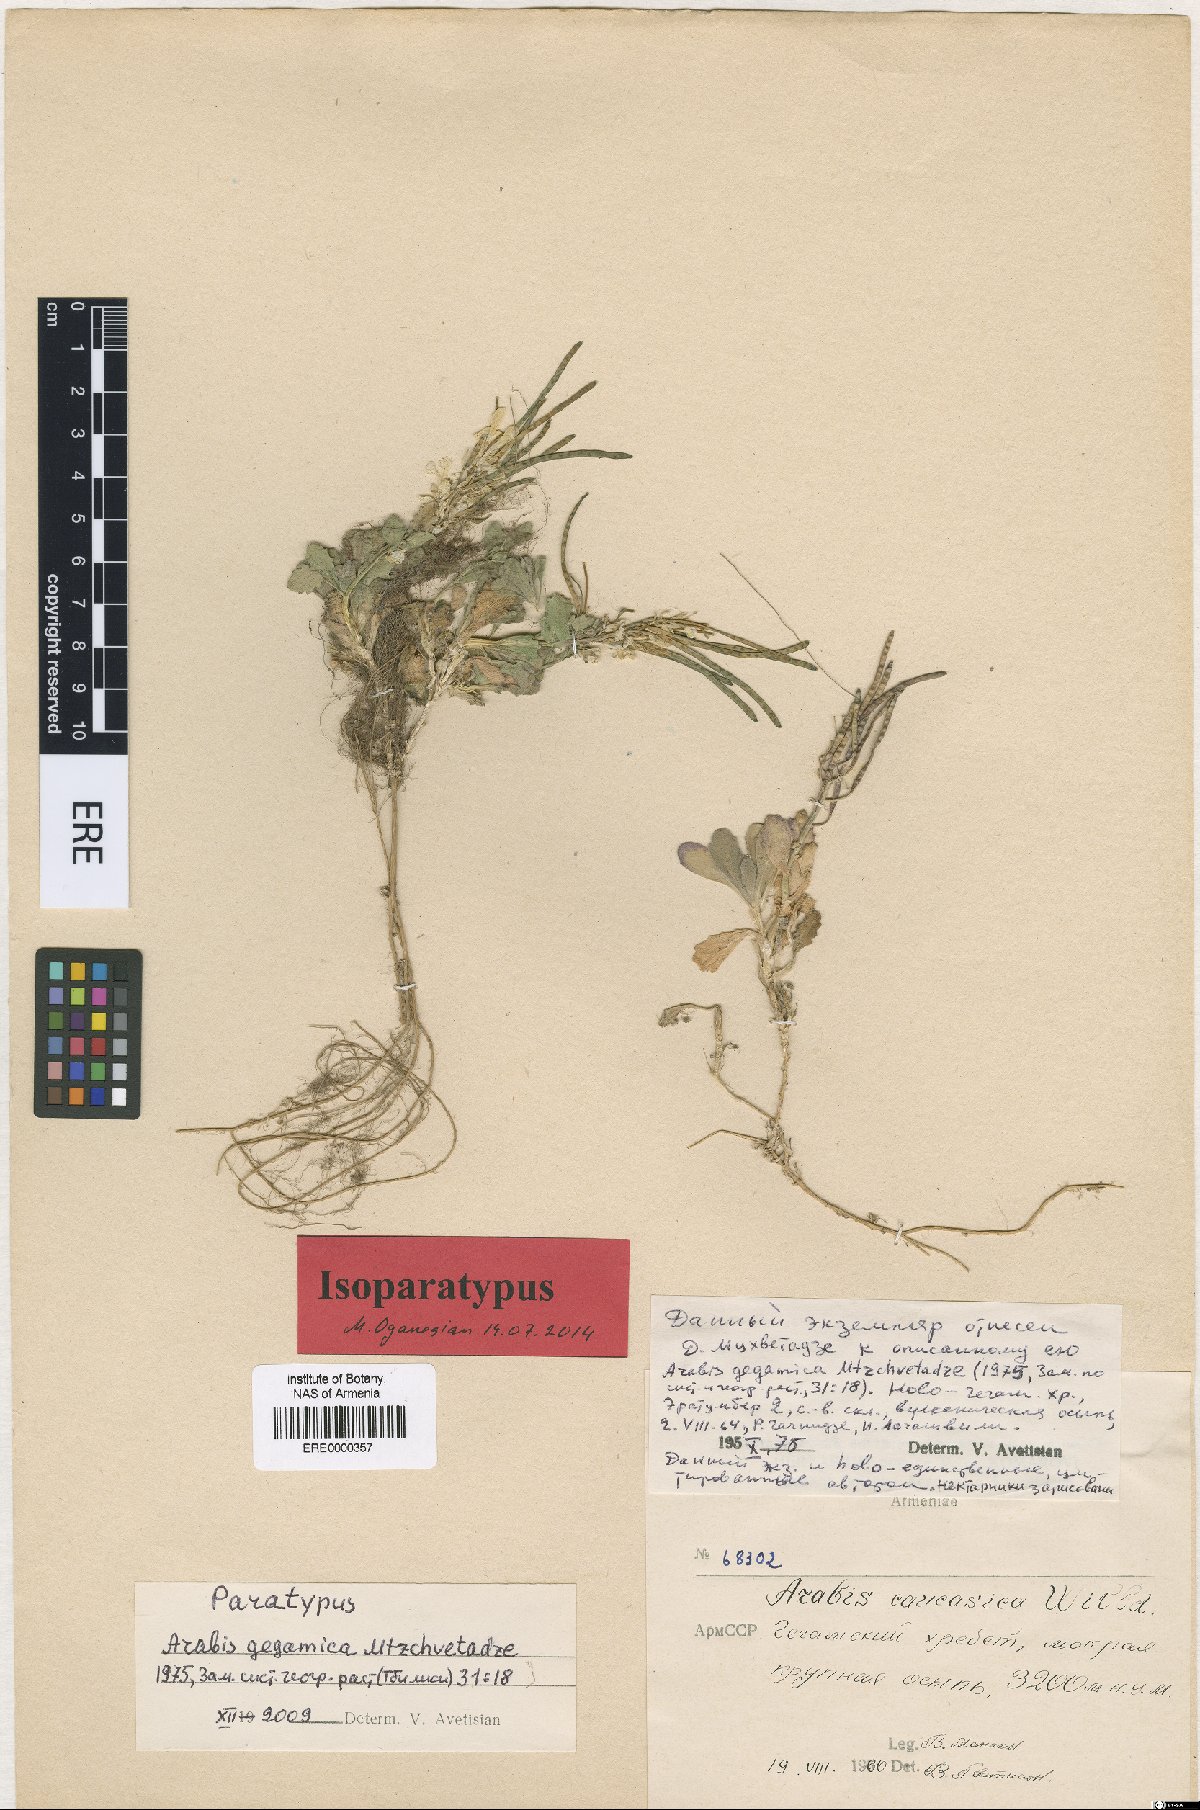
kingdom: Plantae
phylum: Tracheophyta
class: Magnoliopsida
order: Brassicales
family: Brassicaceae
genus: Arabis
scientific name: Arabis gegamica
